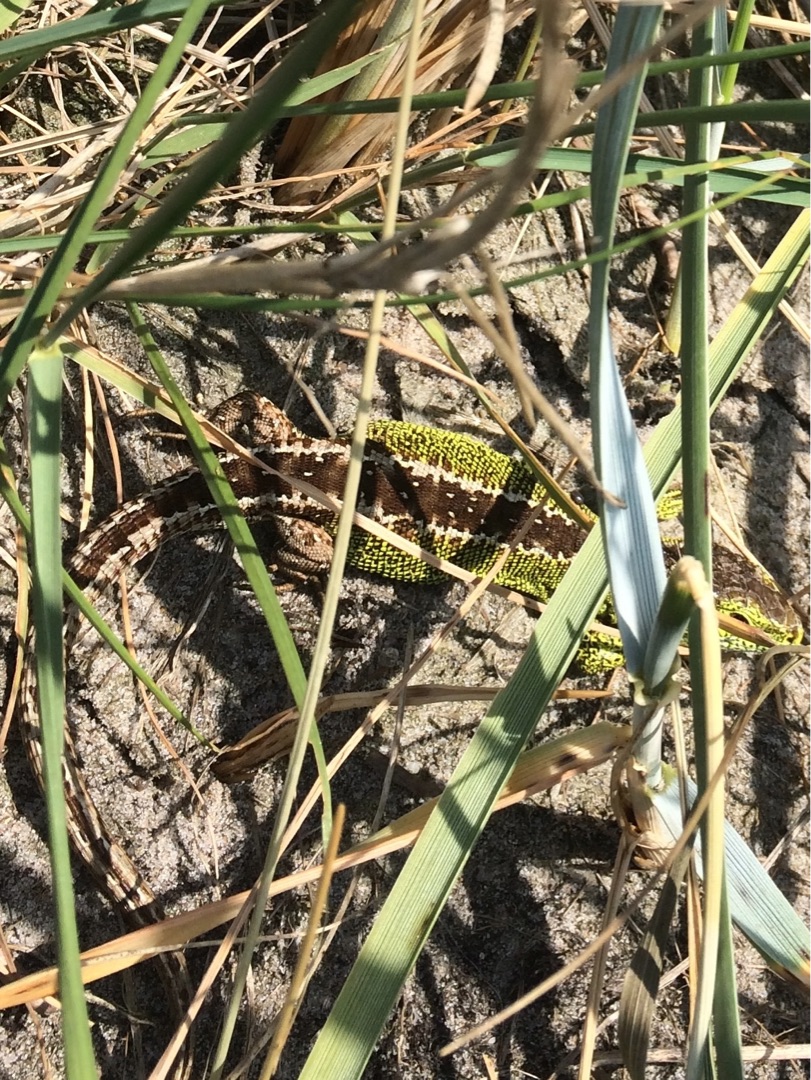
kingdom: Animalia
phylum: Chordata
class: Squamata
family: Lacertidae
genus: Lacerta
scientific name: Lacerta agilis
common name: Markfirben
